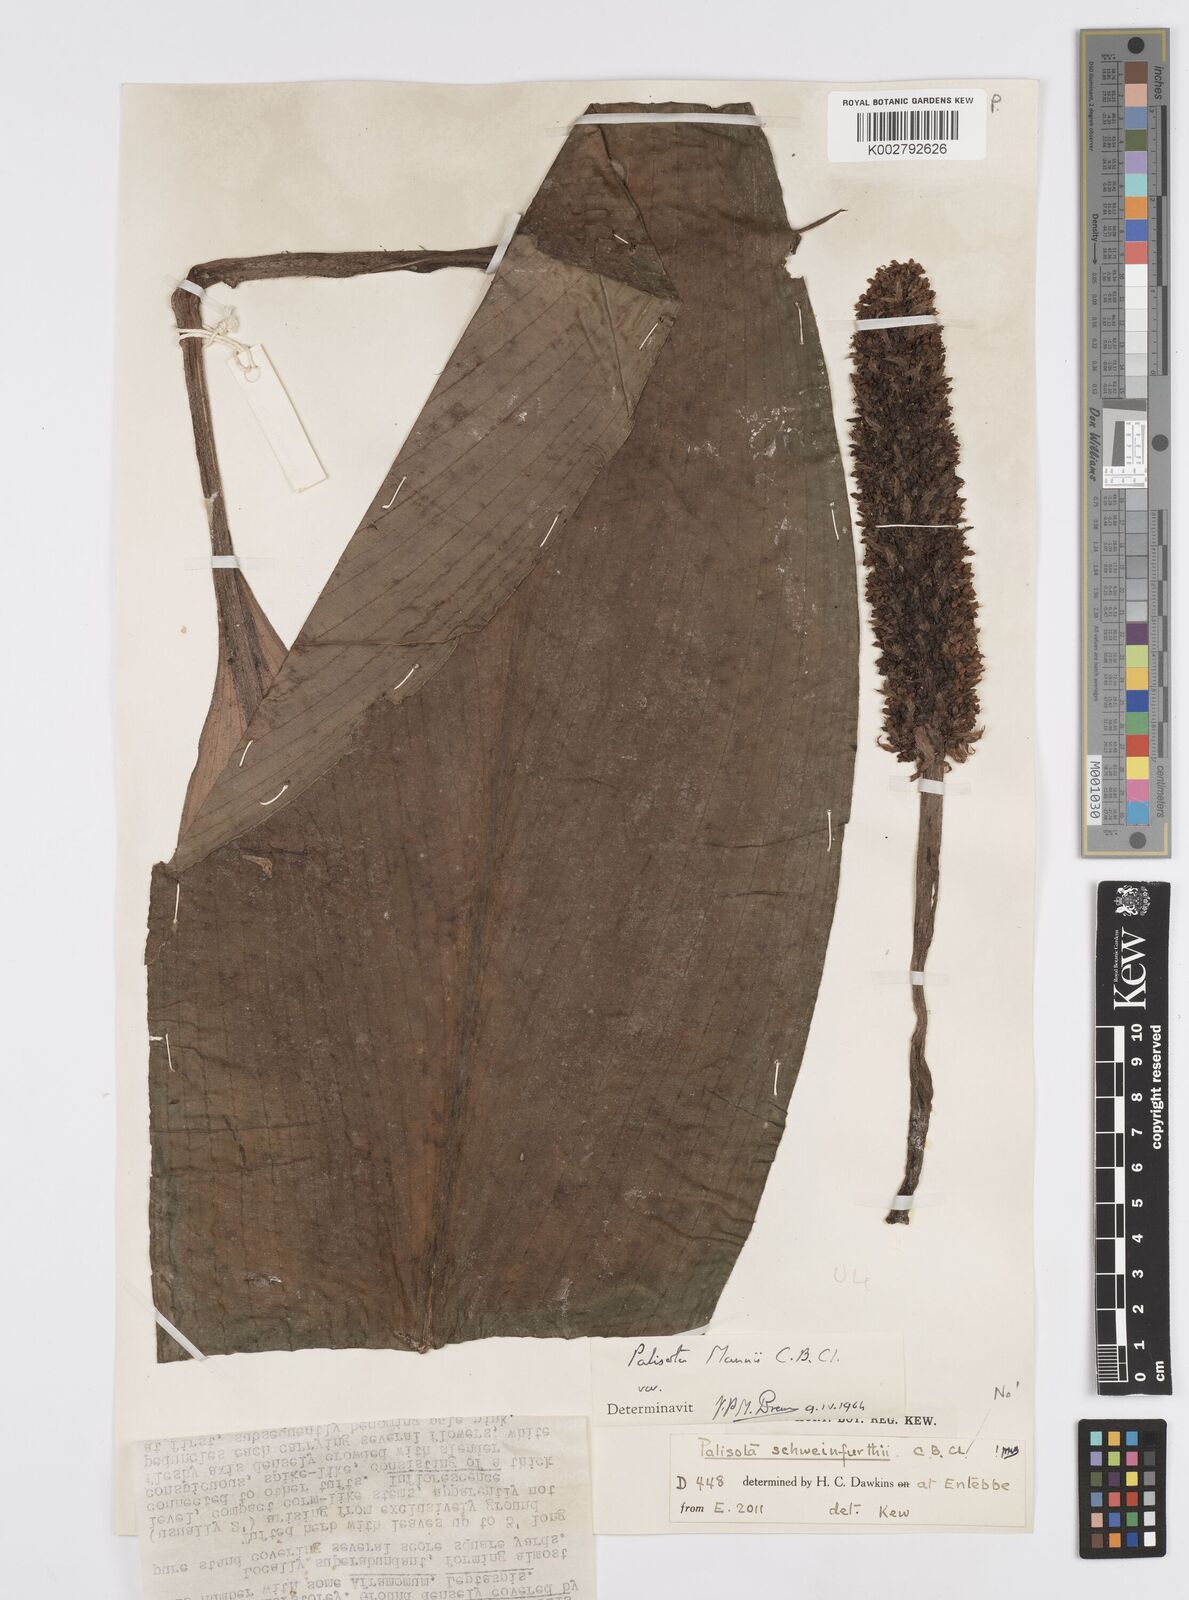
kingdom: Plantae
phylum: Tracheophyta
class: Liliopsida
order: Commelinales
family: Commelinaceae
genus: Palisota
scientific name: Palisota mannii
